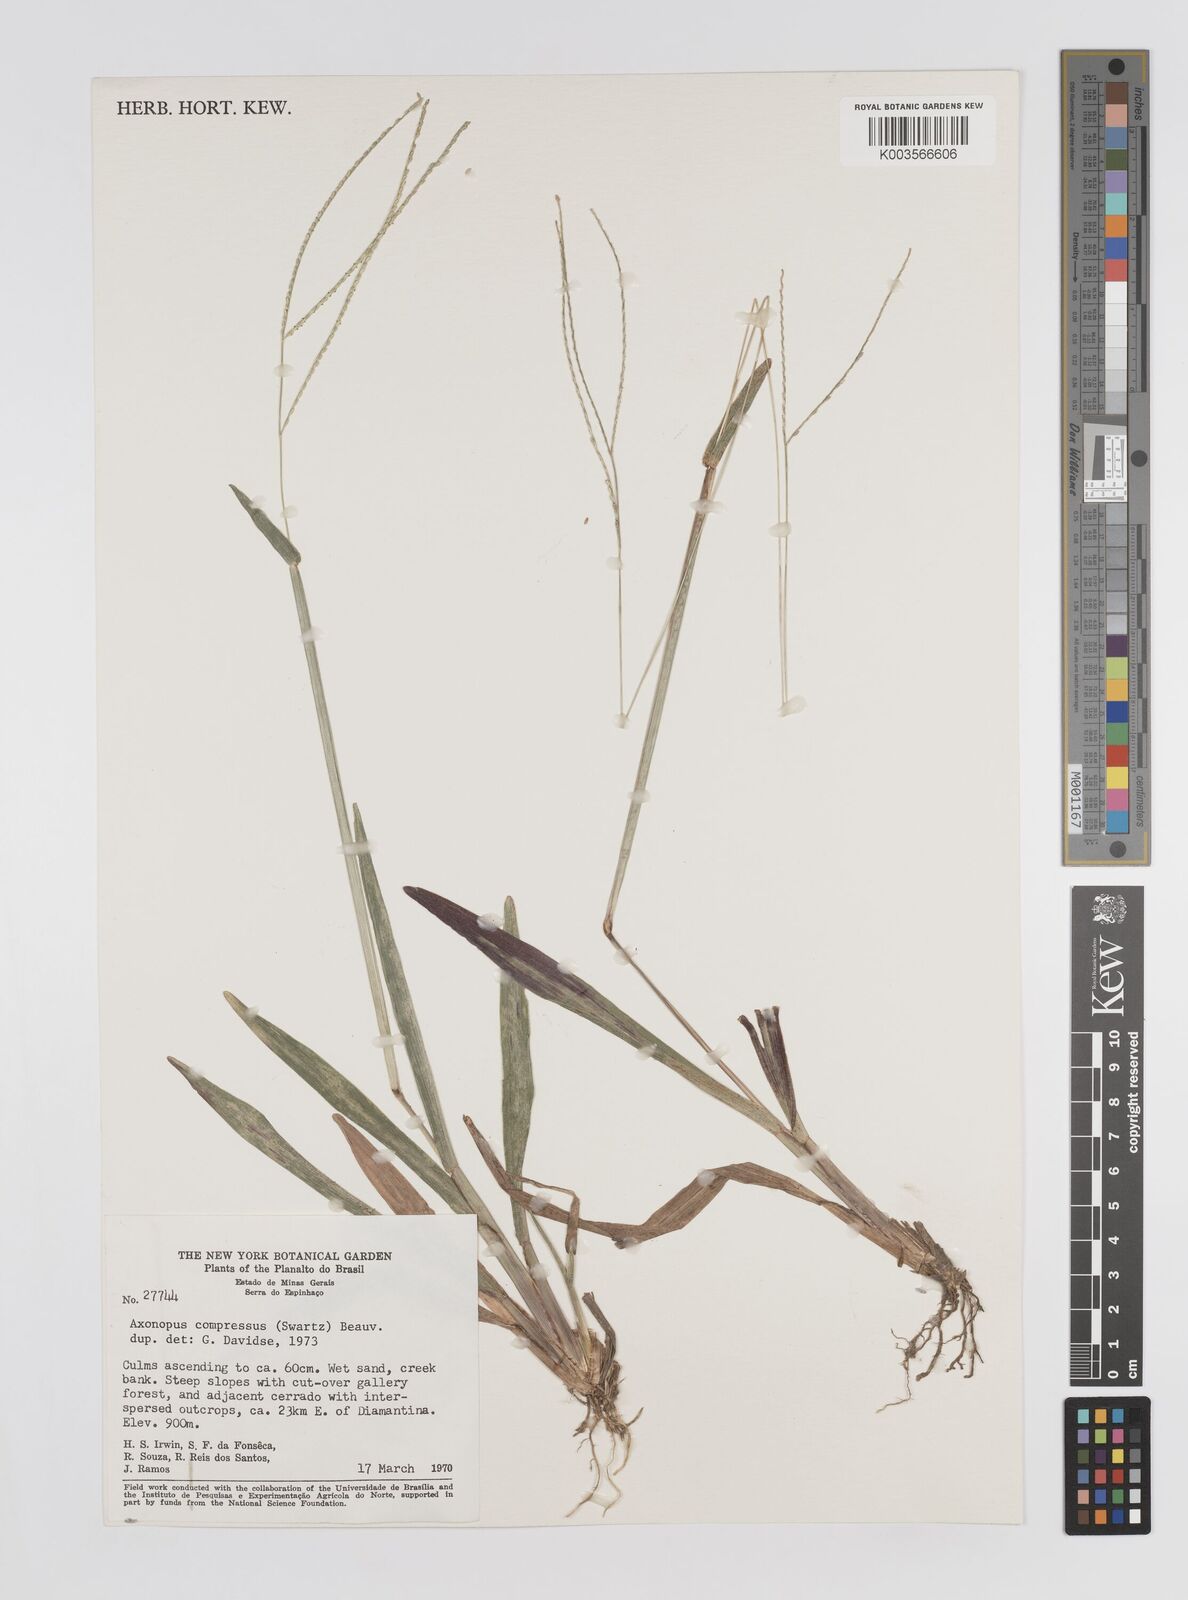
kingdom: Plantae
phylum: Tracheophyta
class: Liliopsida
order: Poales
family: Poaceae
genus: Axonopus
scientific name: Axonopus compressus
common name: American carpet grass
